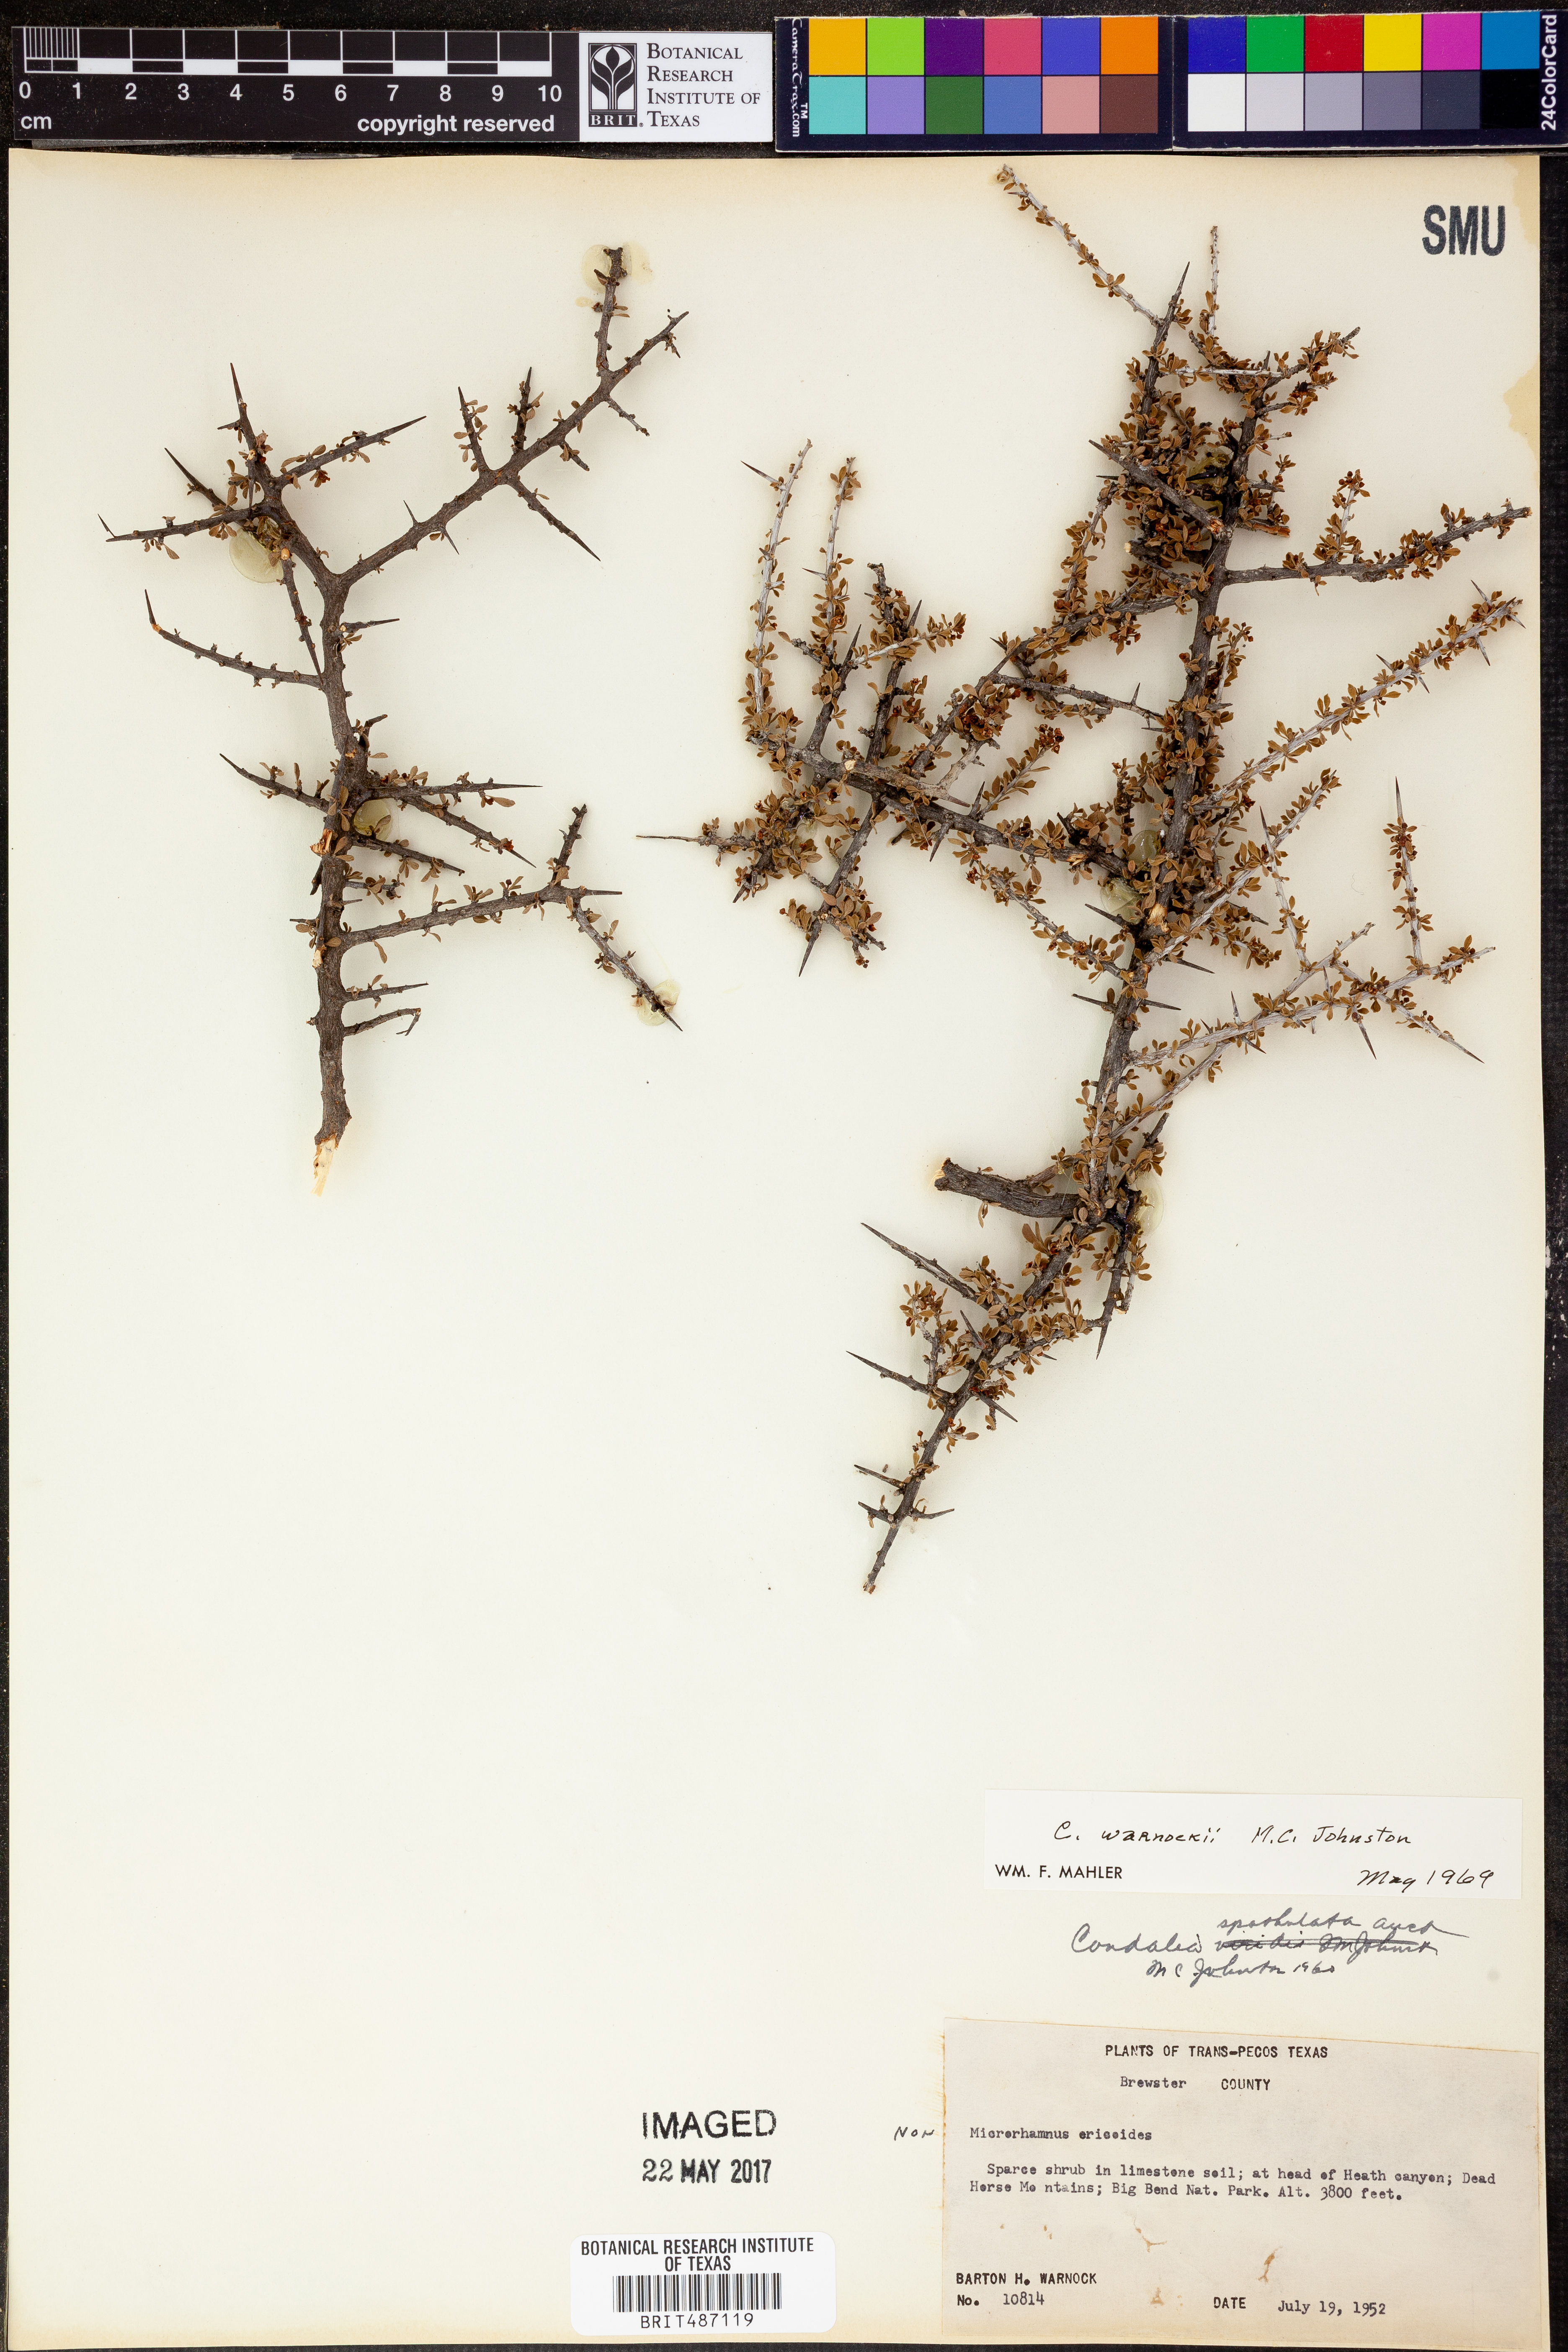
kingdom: Plantae
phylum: Tracheophyta
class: Magnoliopsida
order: Rosales
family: Rhamnaceae
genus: Condalia
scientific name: Condalia warnockii
